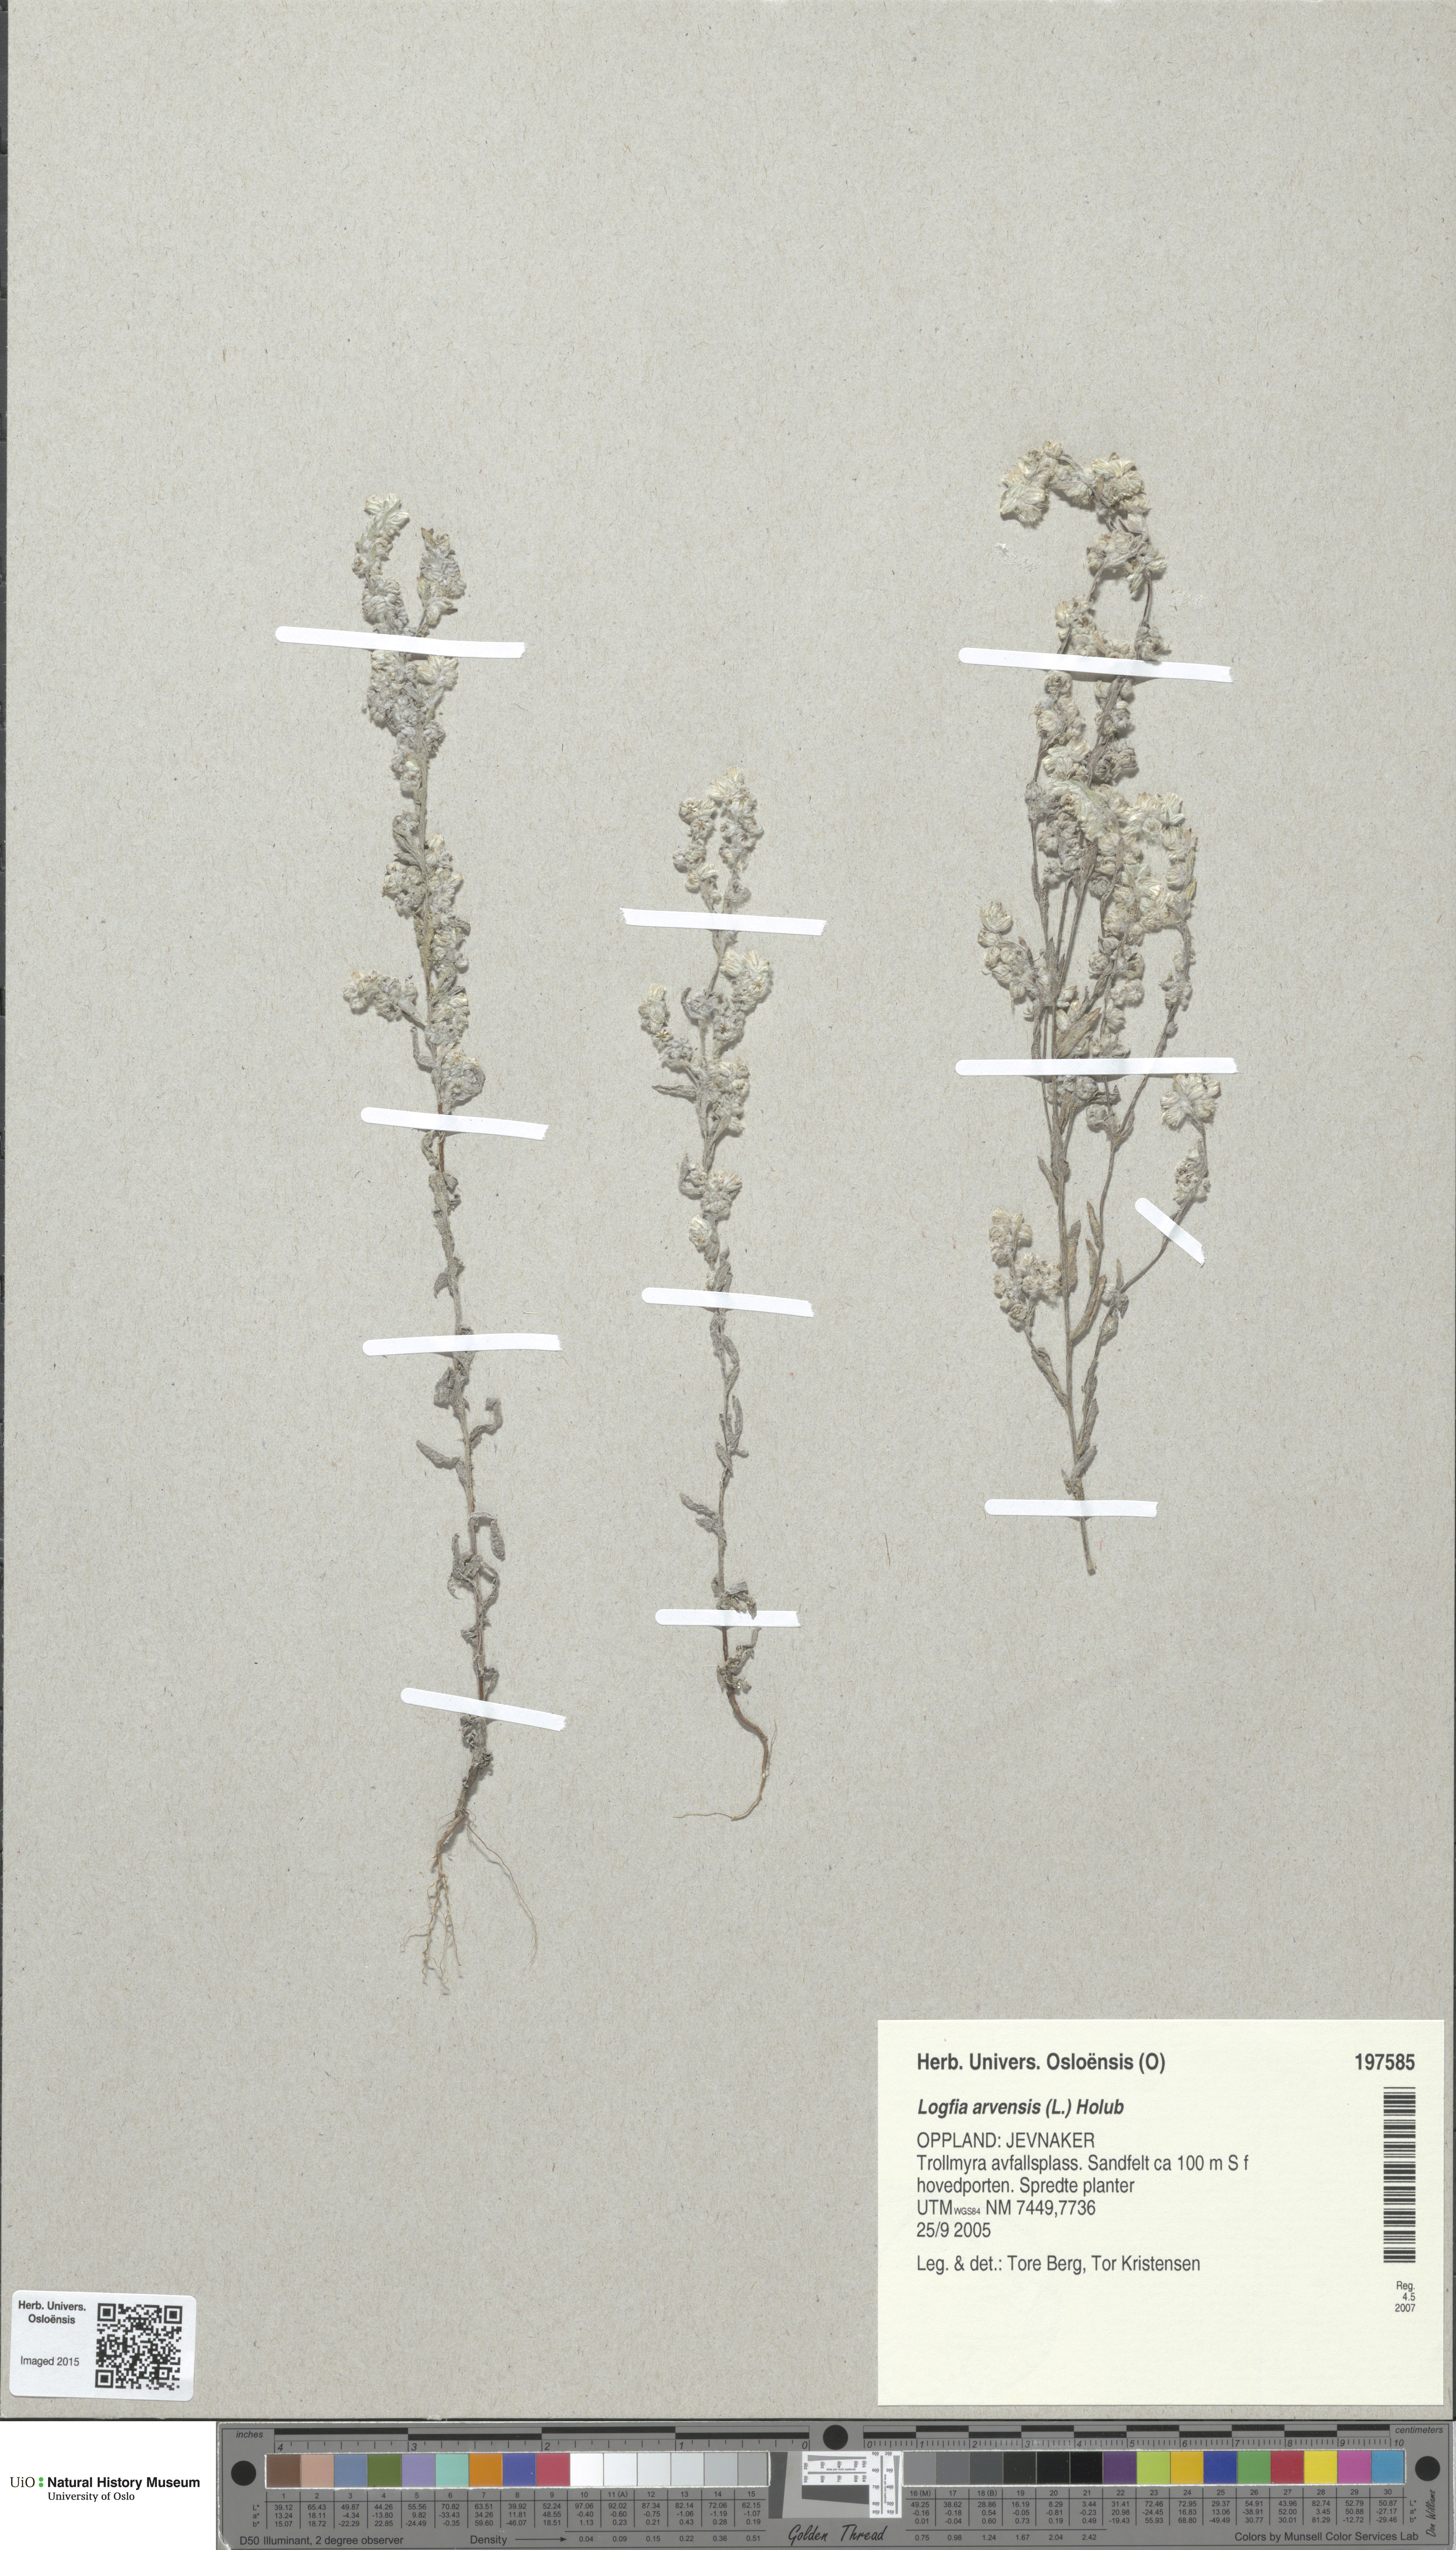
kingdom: Plantae
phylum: Tracheophyta
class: Magnoliopsida
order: Asterales
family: Asteraceae
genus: Filago
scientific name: Filago arvensis
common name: Field cudweed
